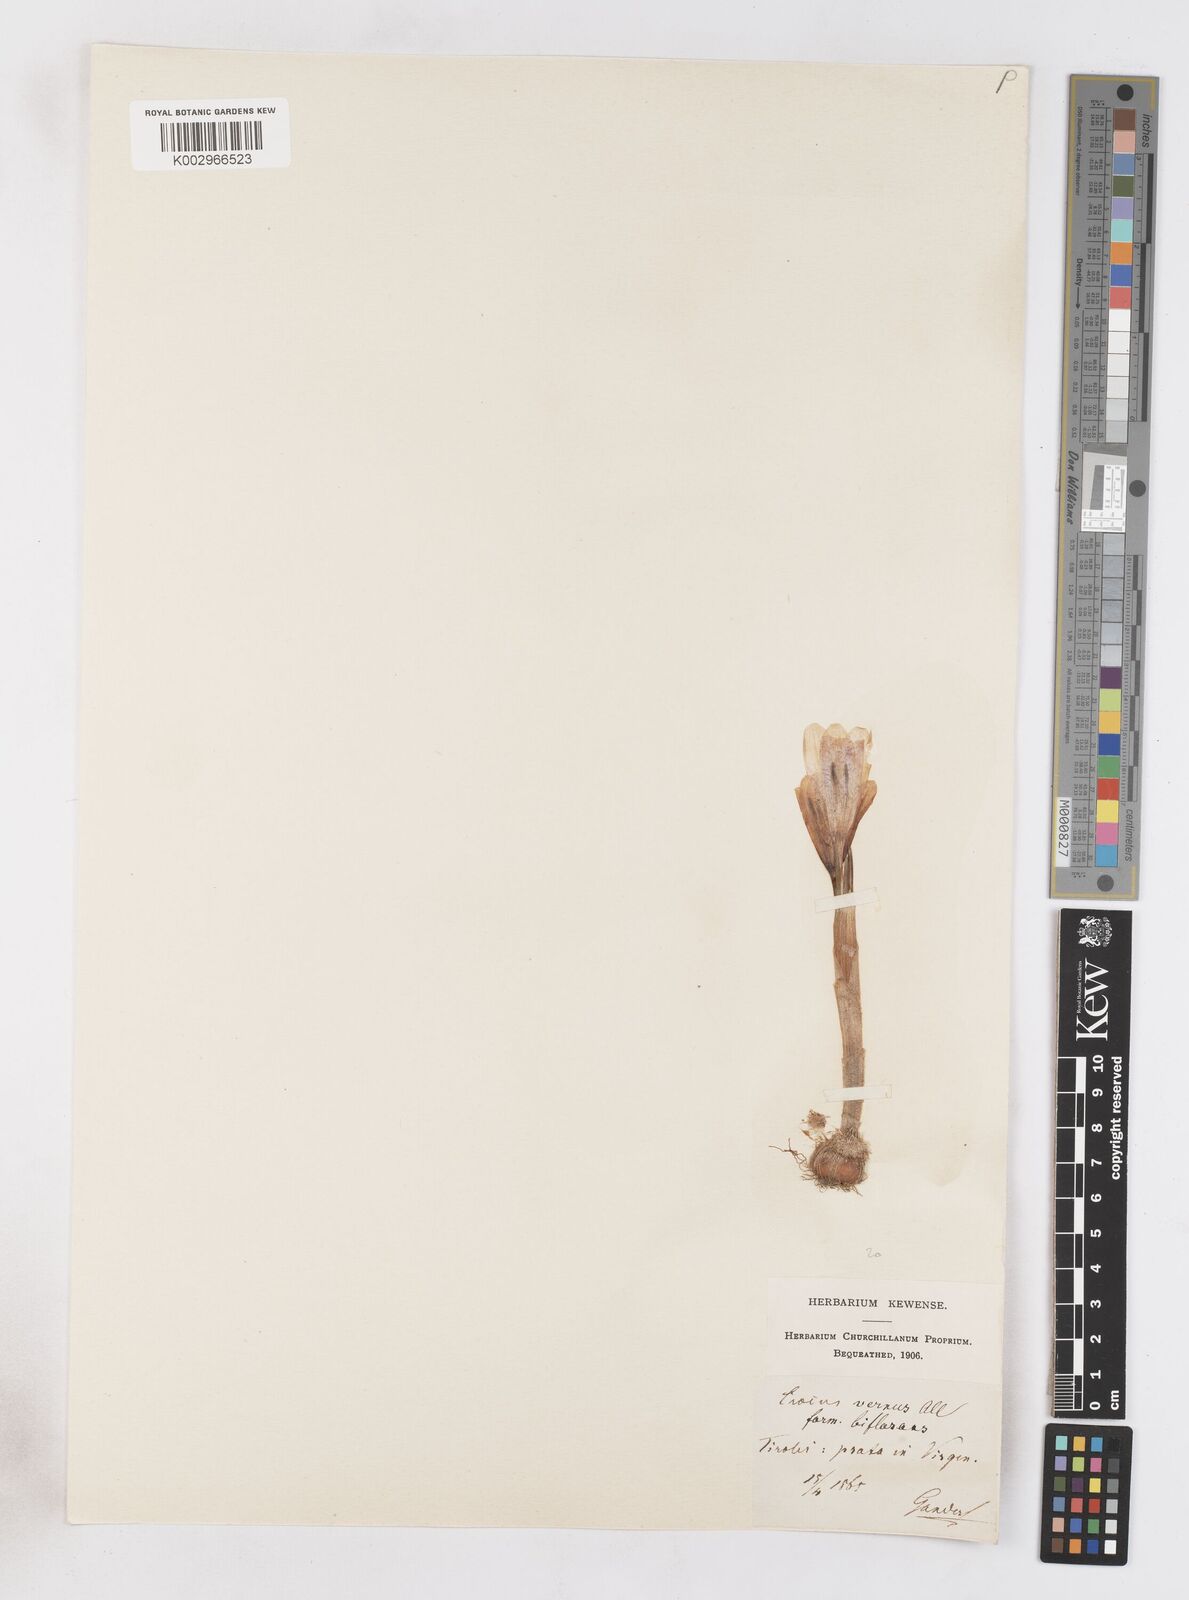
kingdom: Plantae
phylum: Tracheophyta
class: Liliopsida
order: Asparagales
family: Iridaceae
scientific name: Iridaceae
